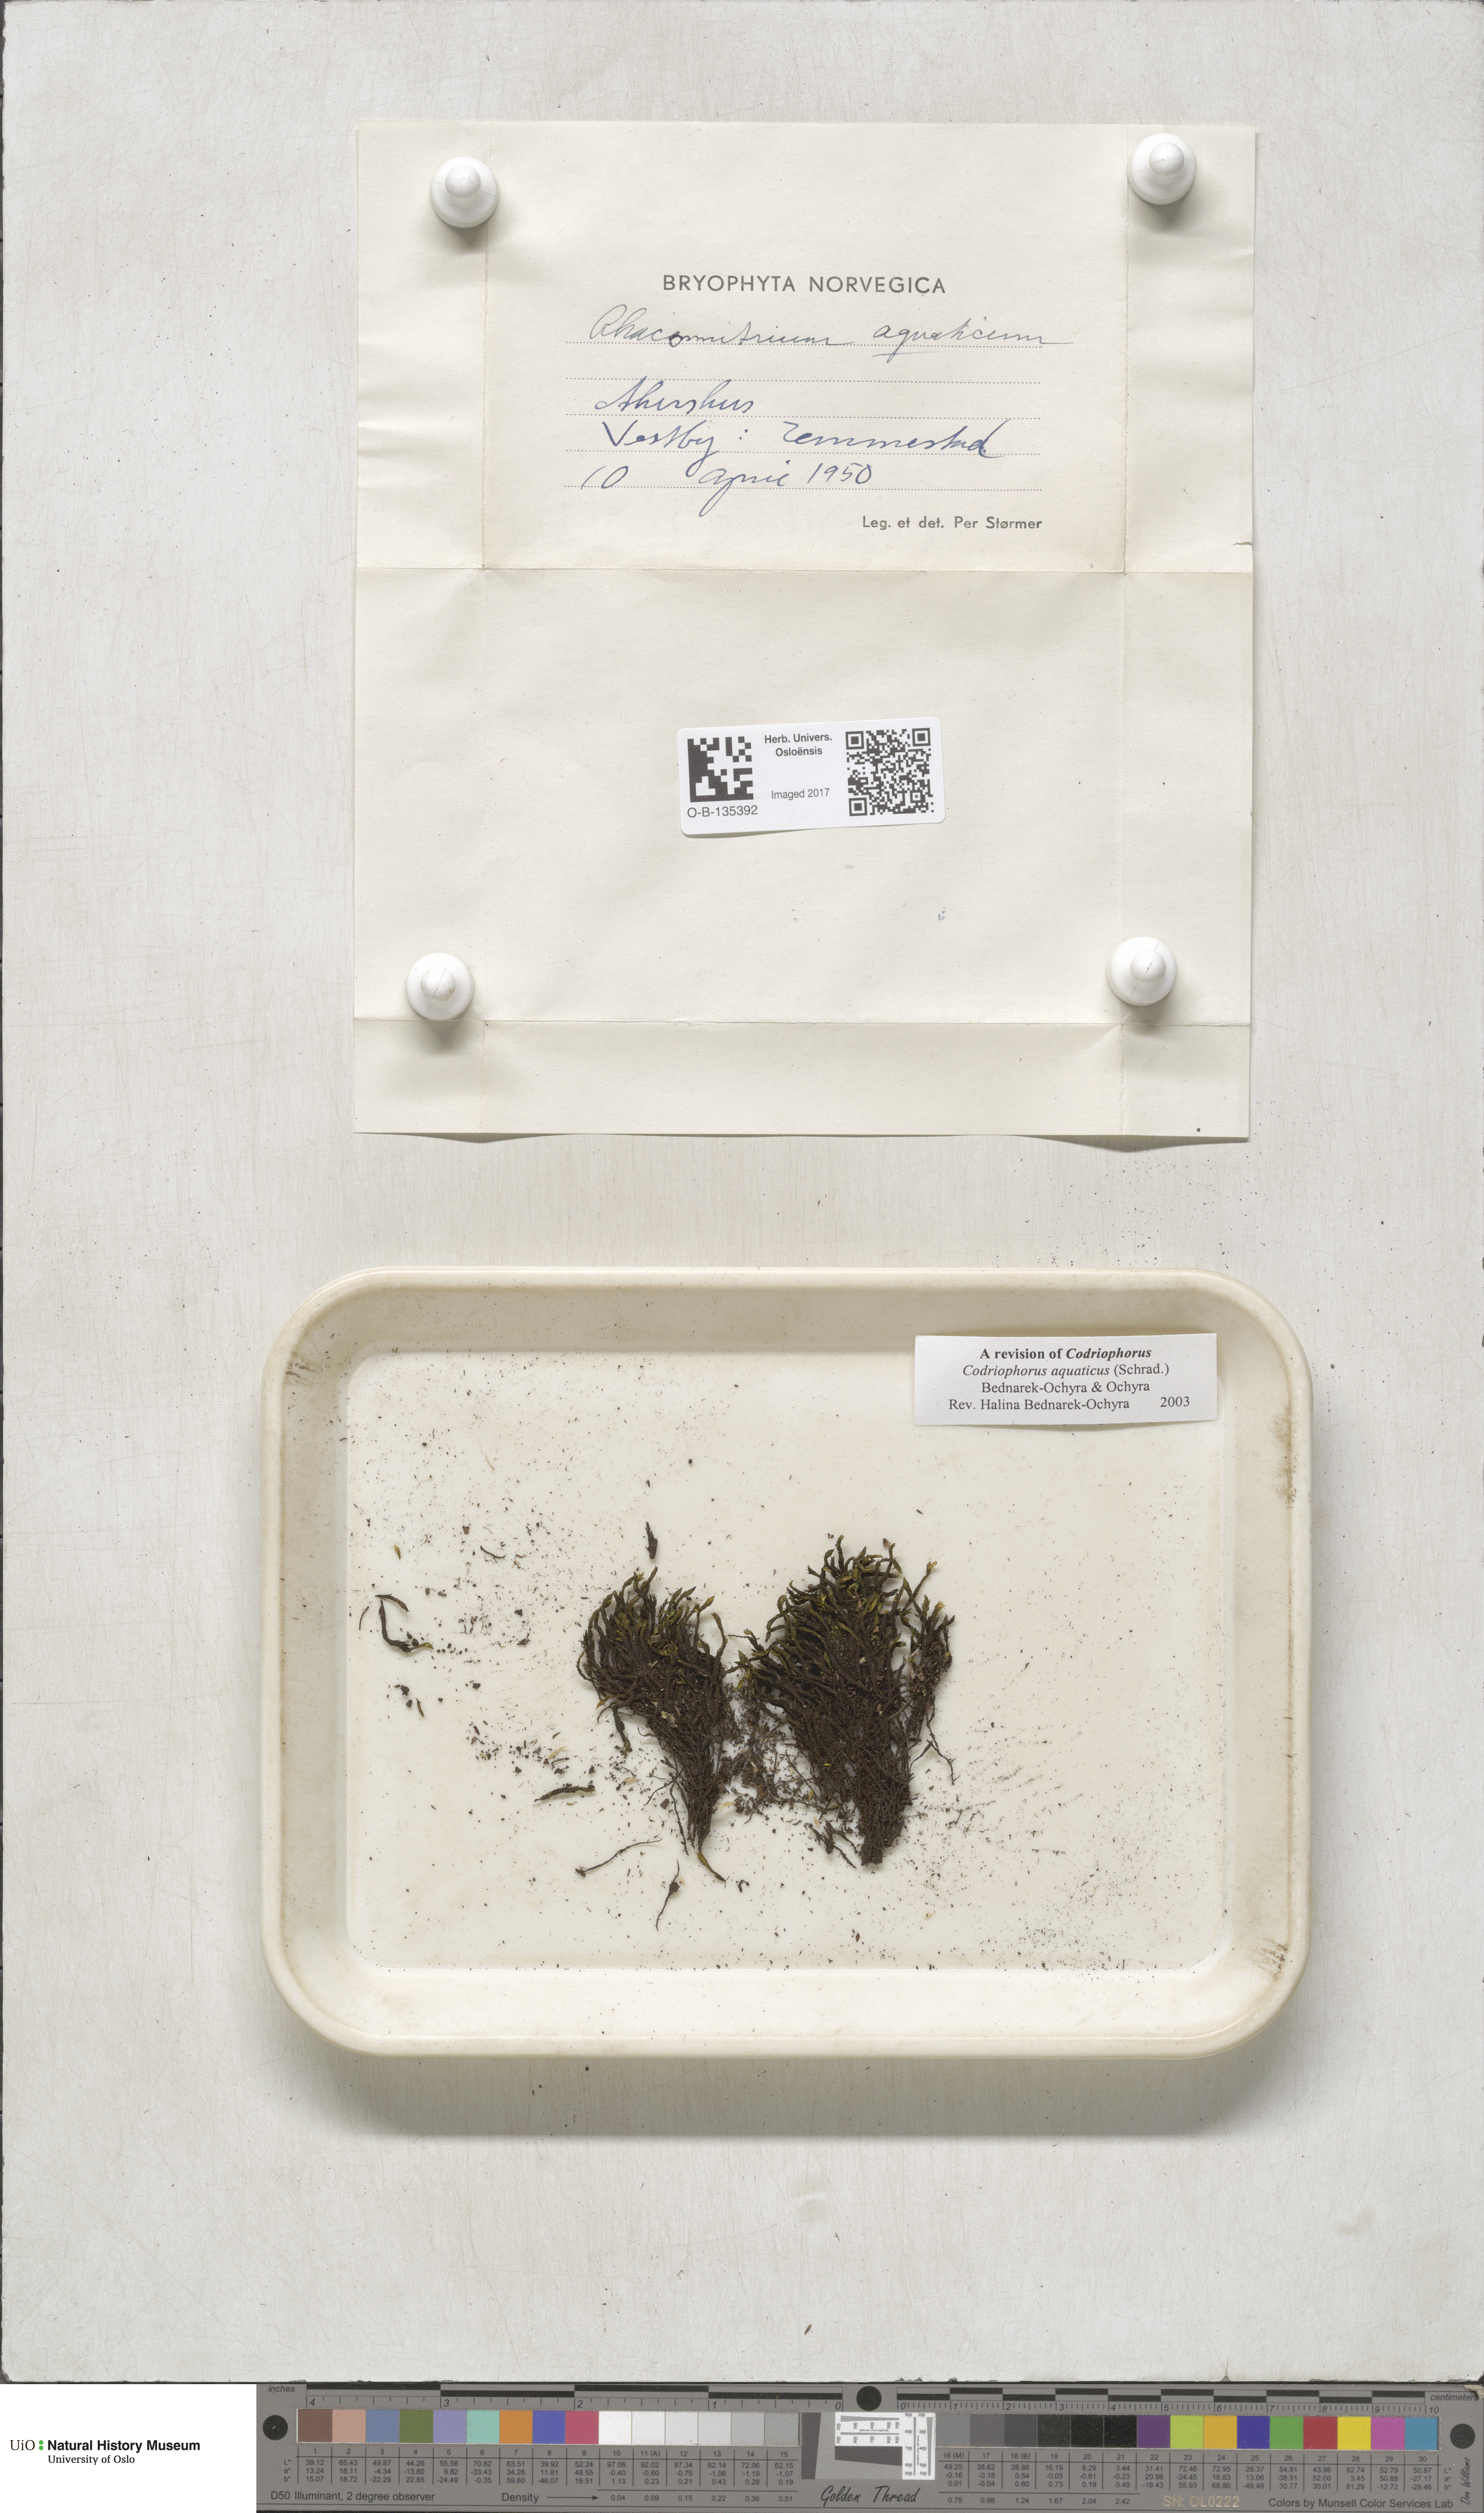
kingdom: Plantae
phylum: Bryophyta
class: Bryopsida
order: Grimmiales
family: Grimmiaceae
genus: Codriophorus
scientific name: Codriophorus aquaticus
